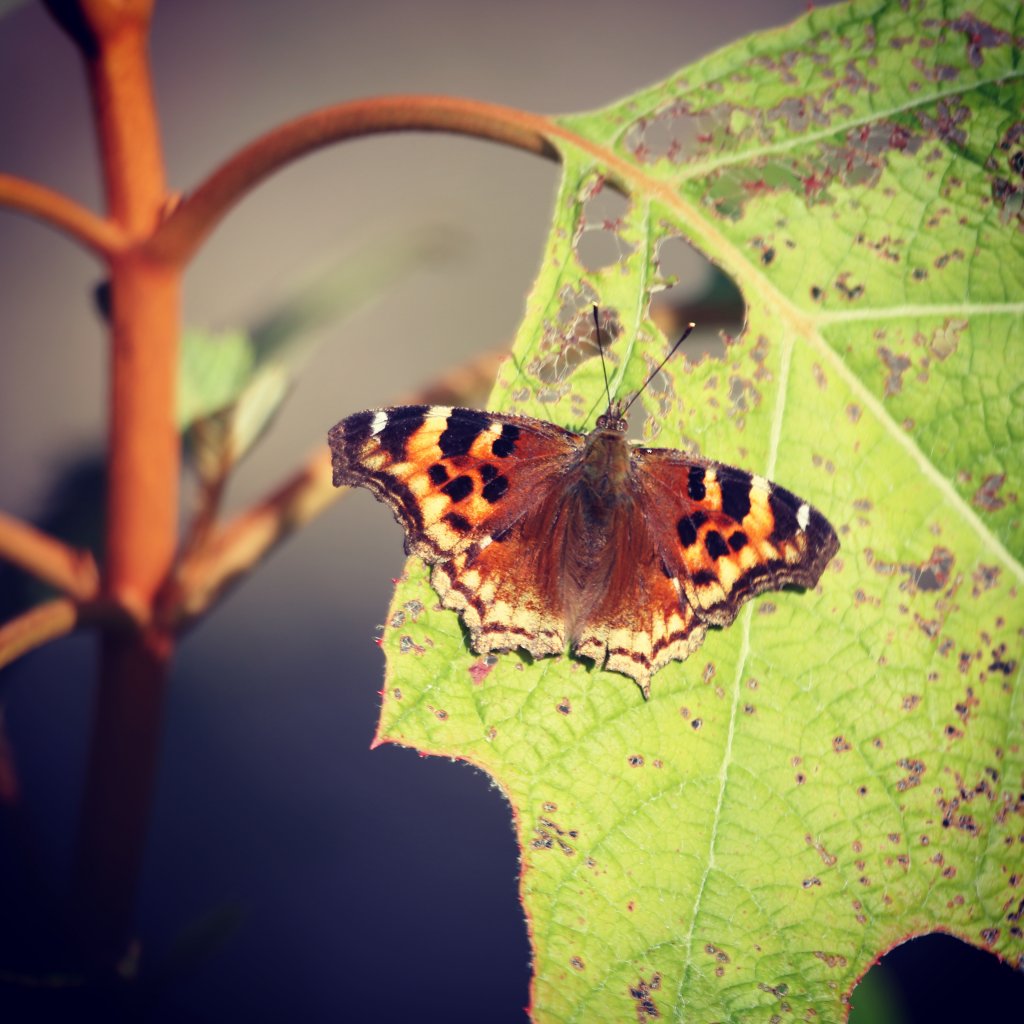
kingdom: Animalia
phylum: Arthropoda
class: Insecta
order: Lepidoptera
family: Nymphalidae
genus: Polygonia
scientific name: Polygonia vaualbum
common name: Compton Tortoiseshell
